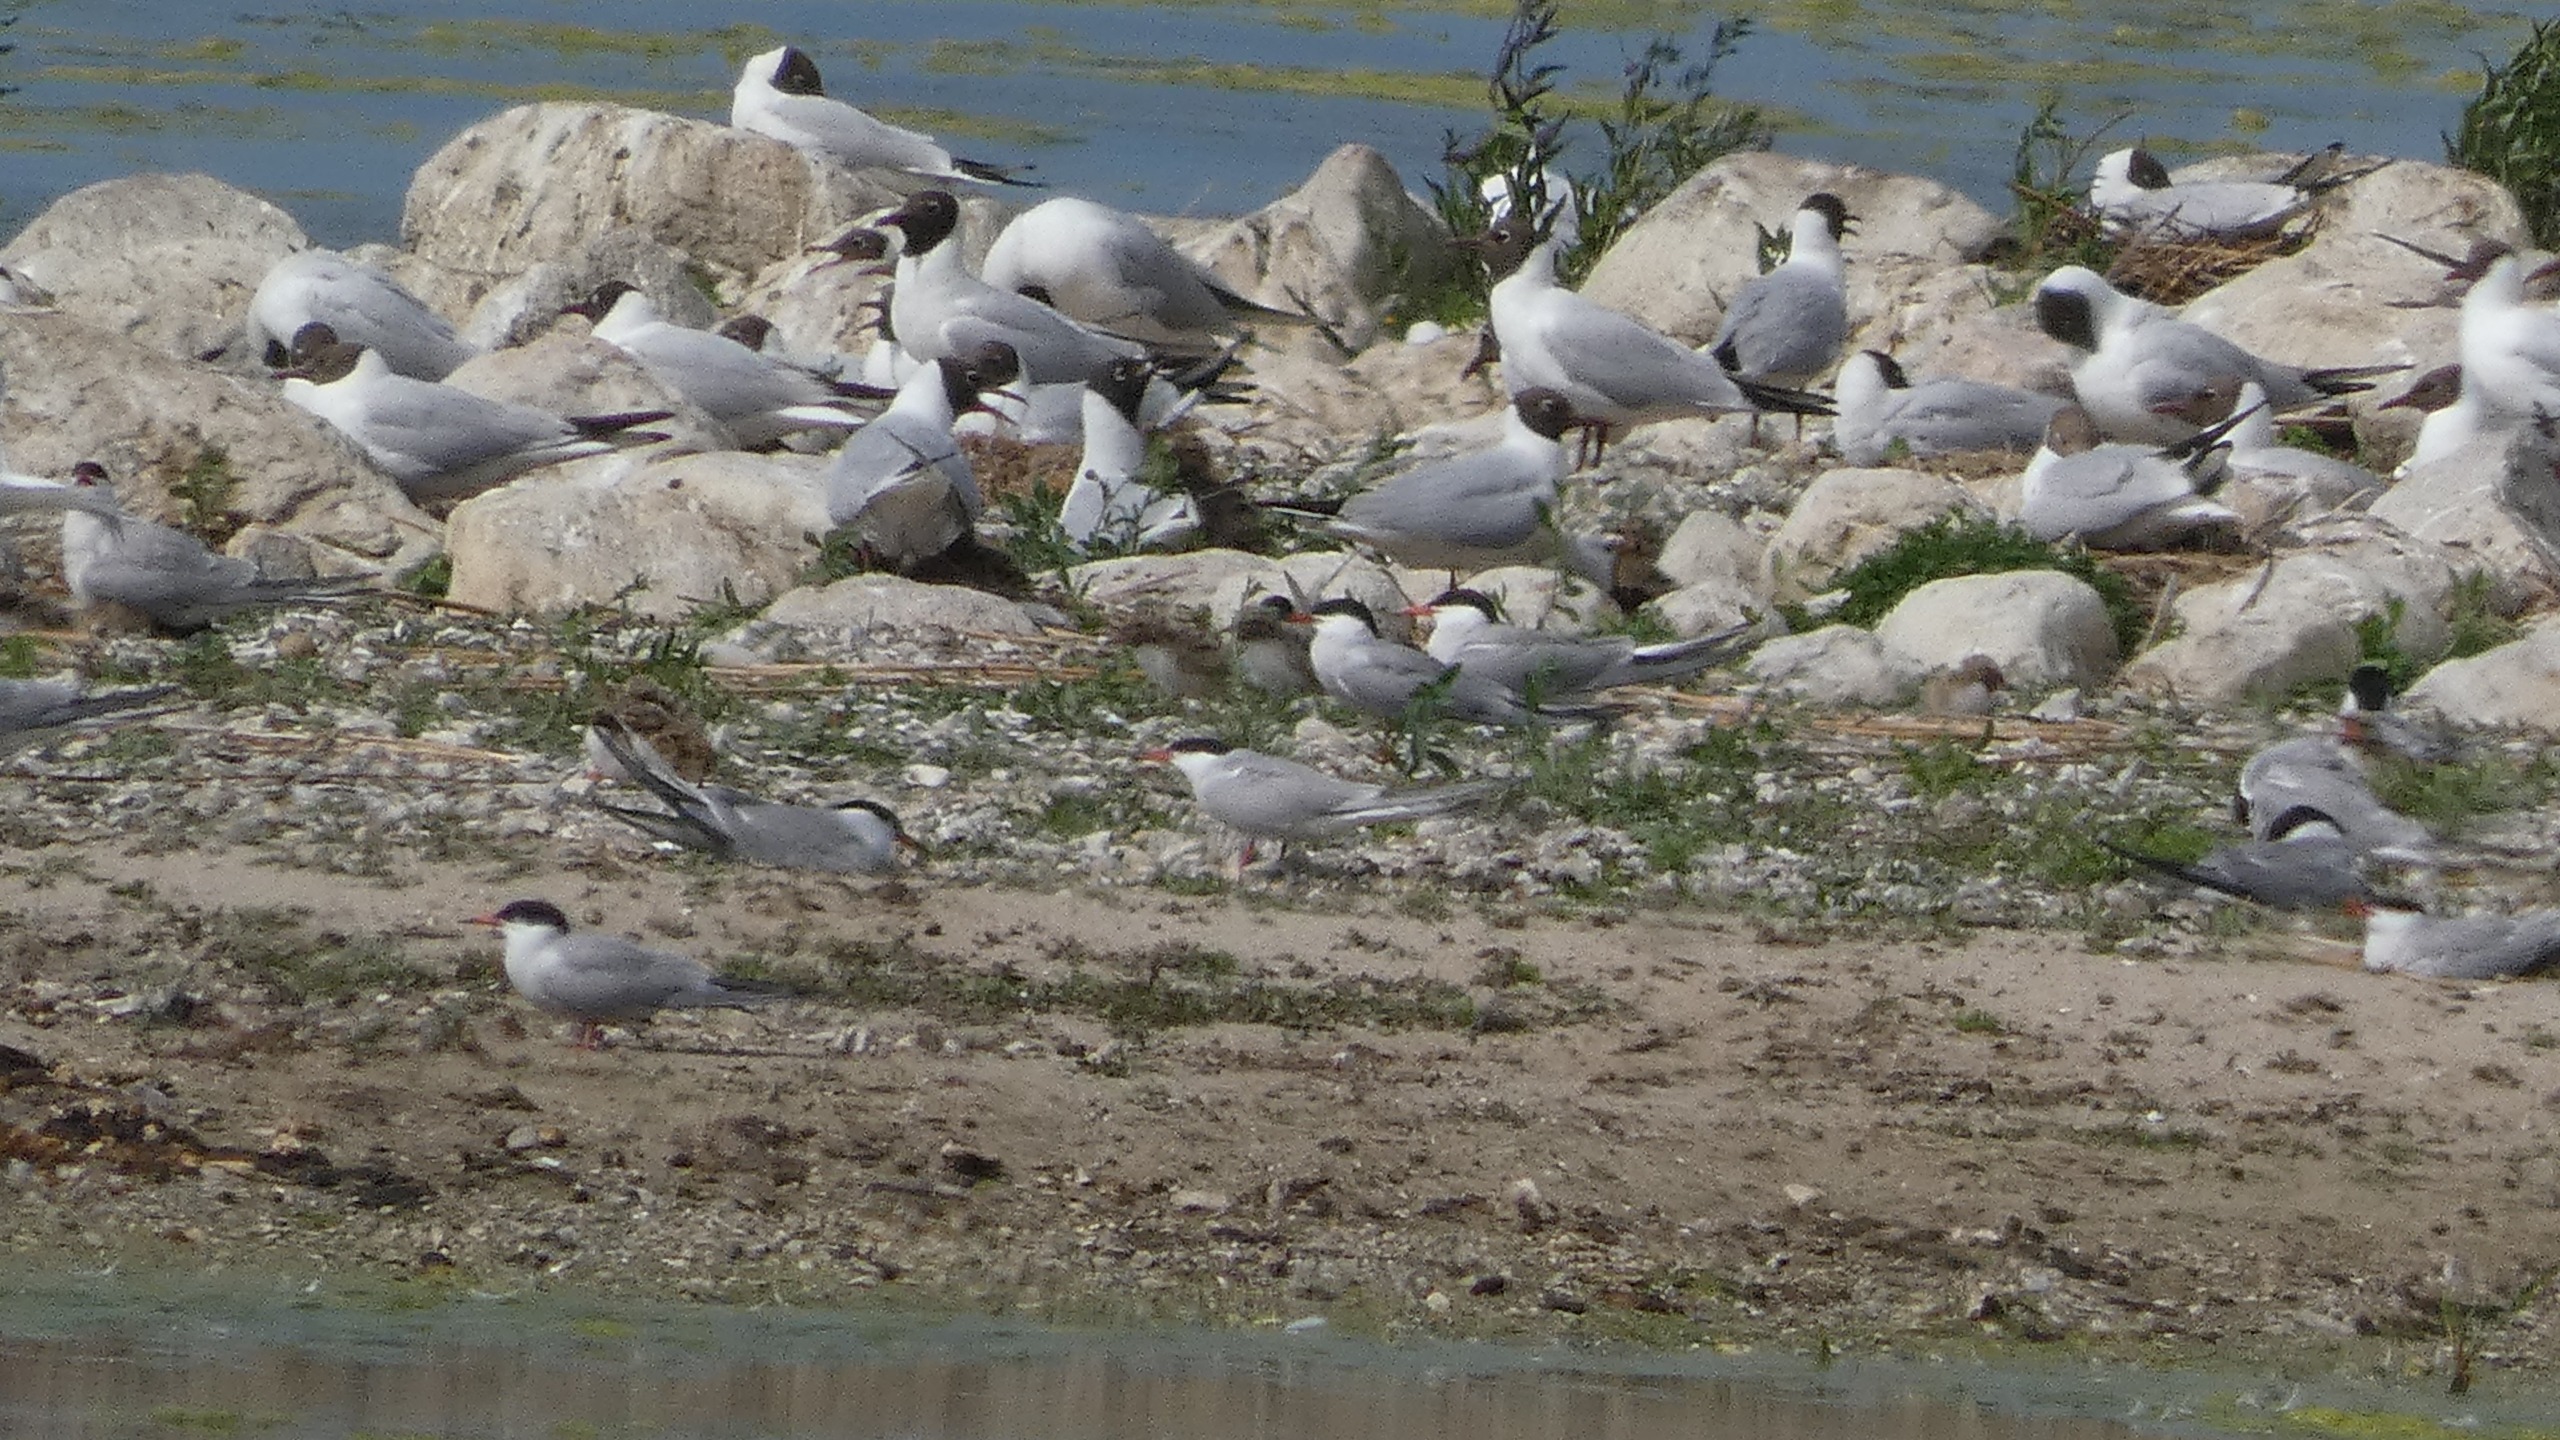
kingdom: Animalia
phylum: Chordata
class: Aves
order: Charadriiformes
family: Laridae
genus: Sterna
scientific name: Sterna hirundo
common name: Fjordterne
